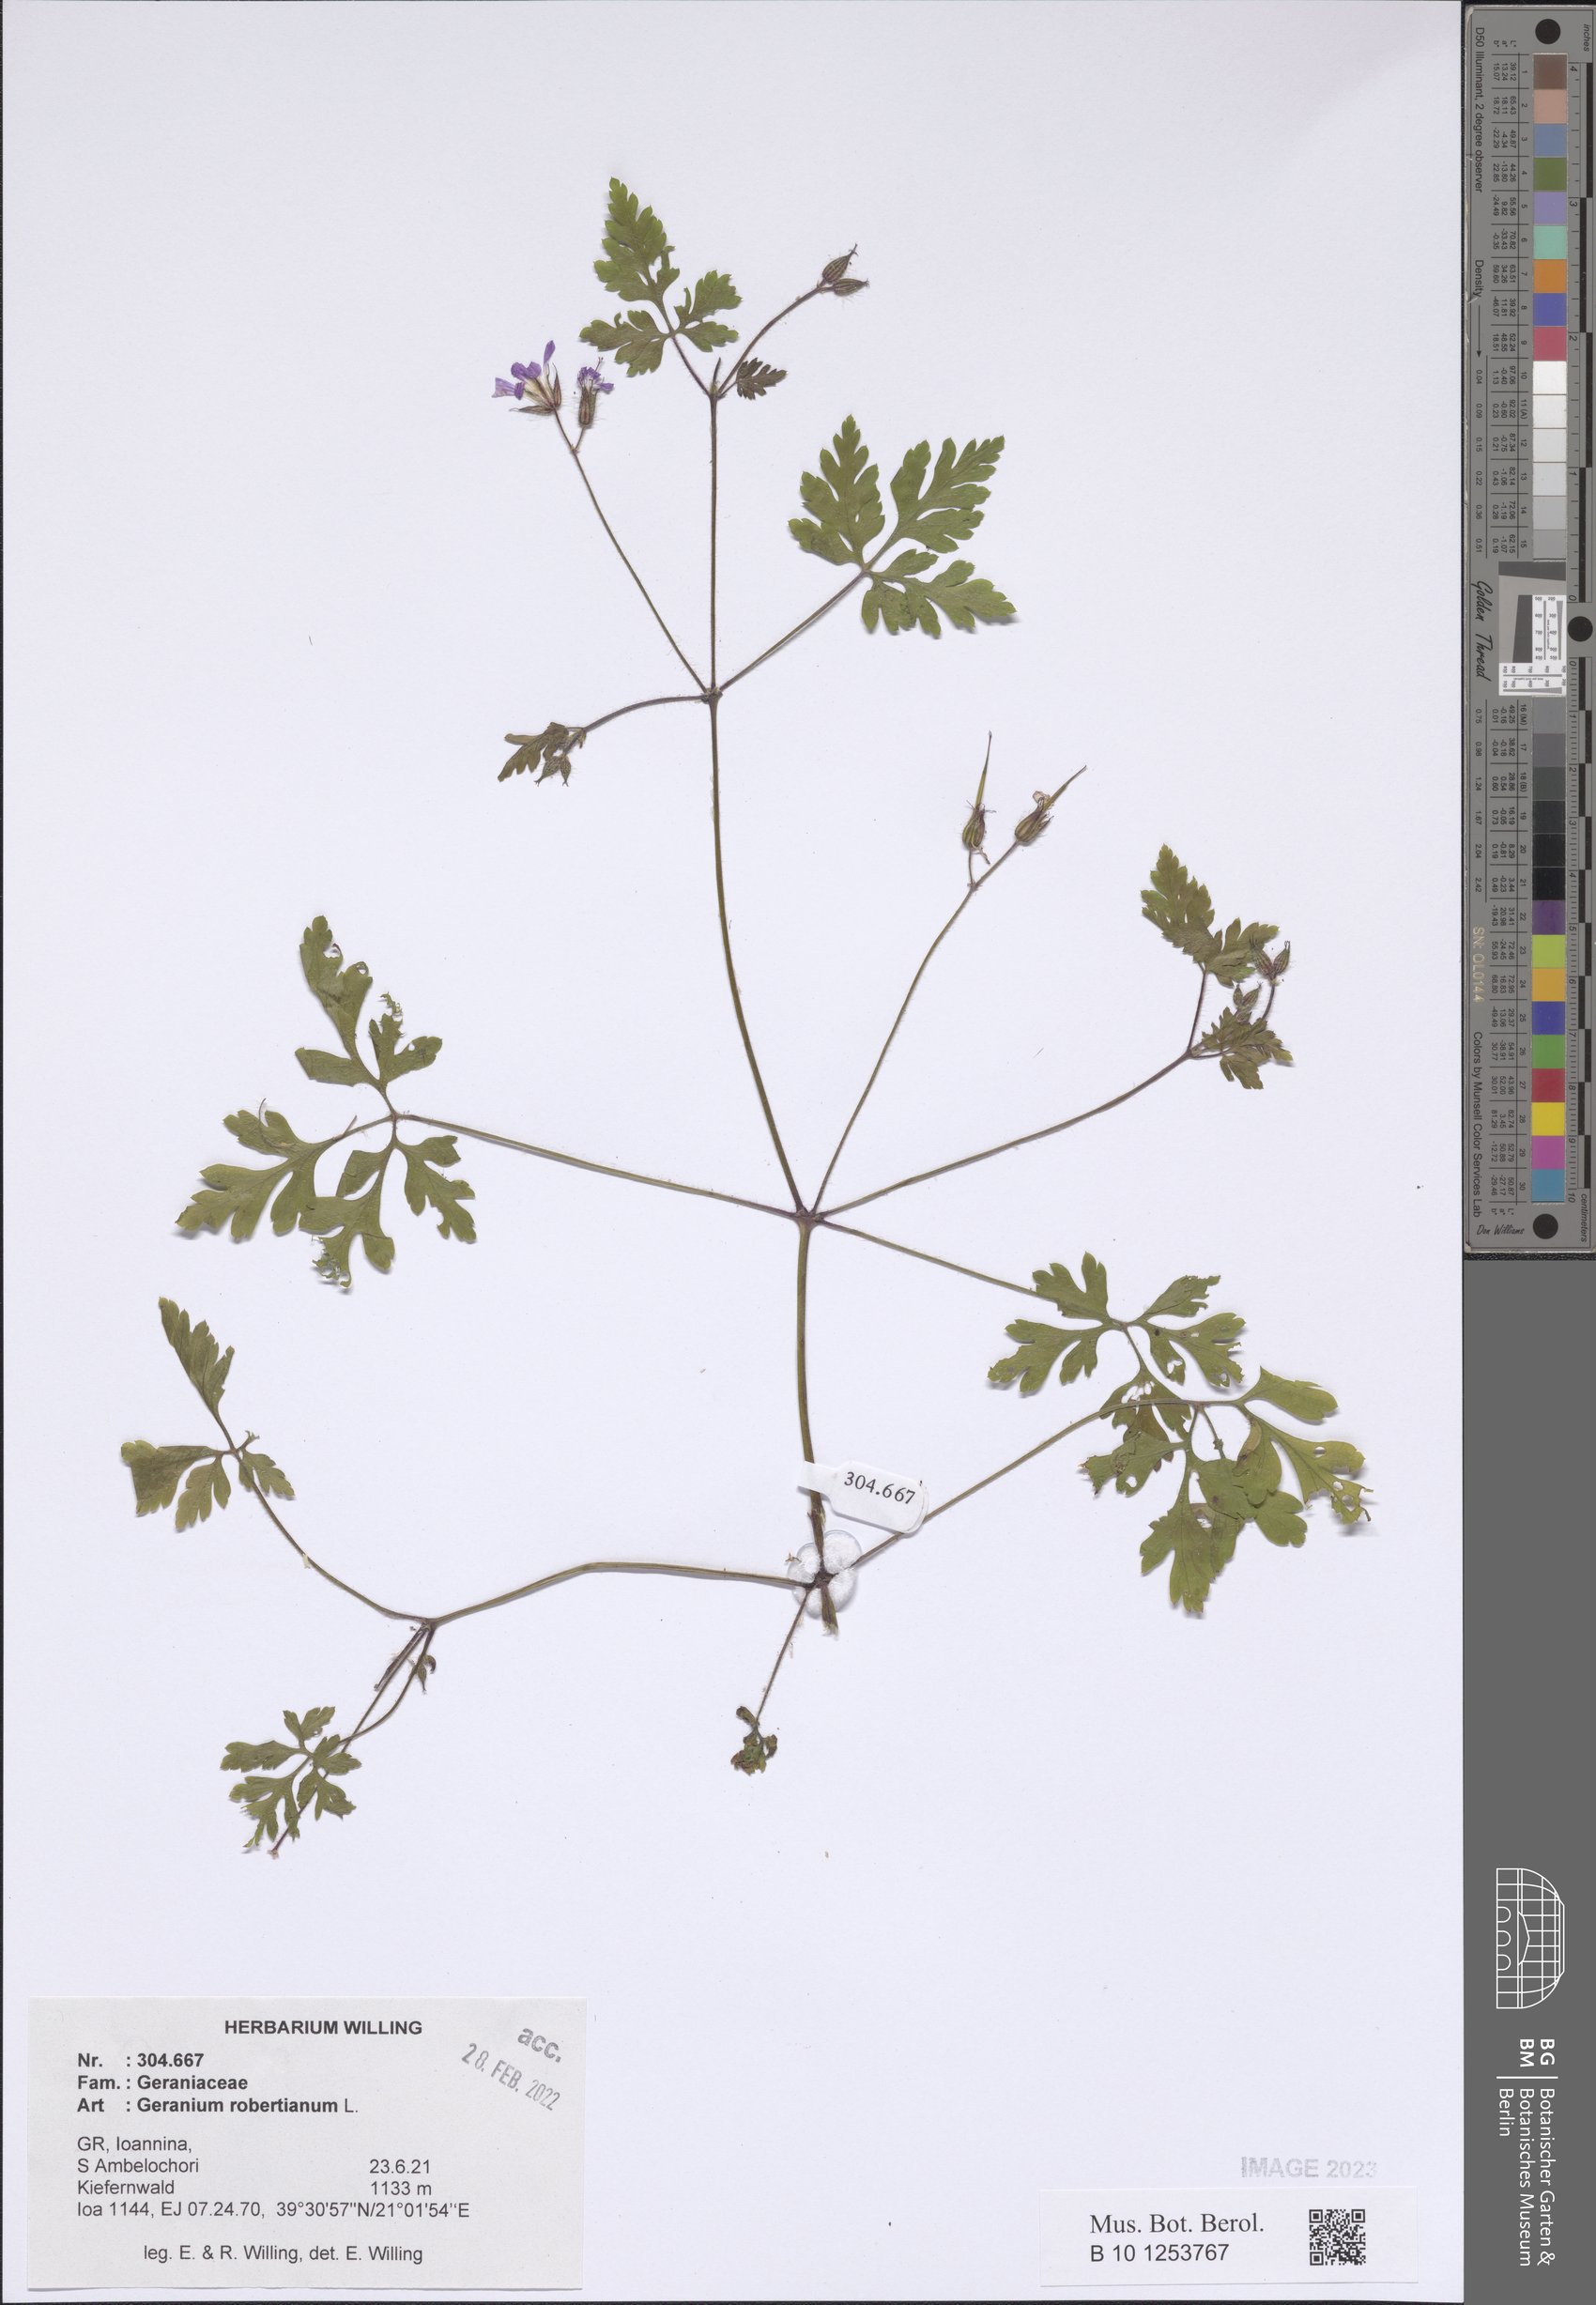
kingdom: Plantae
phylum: Tracheophyta
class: Magnoliopsida
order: Geraniales
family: Geraniaceae
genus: Geranium
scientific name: Geranium robertianum
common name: Herb-robert
